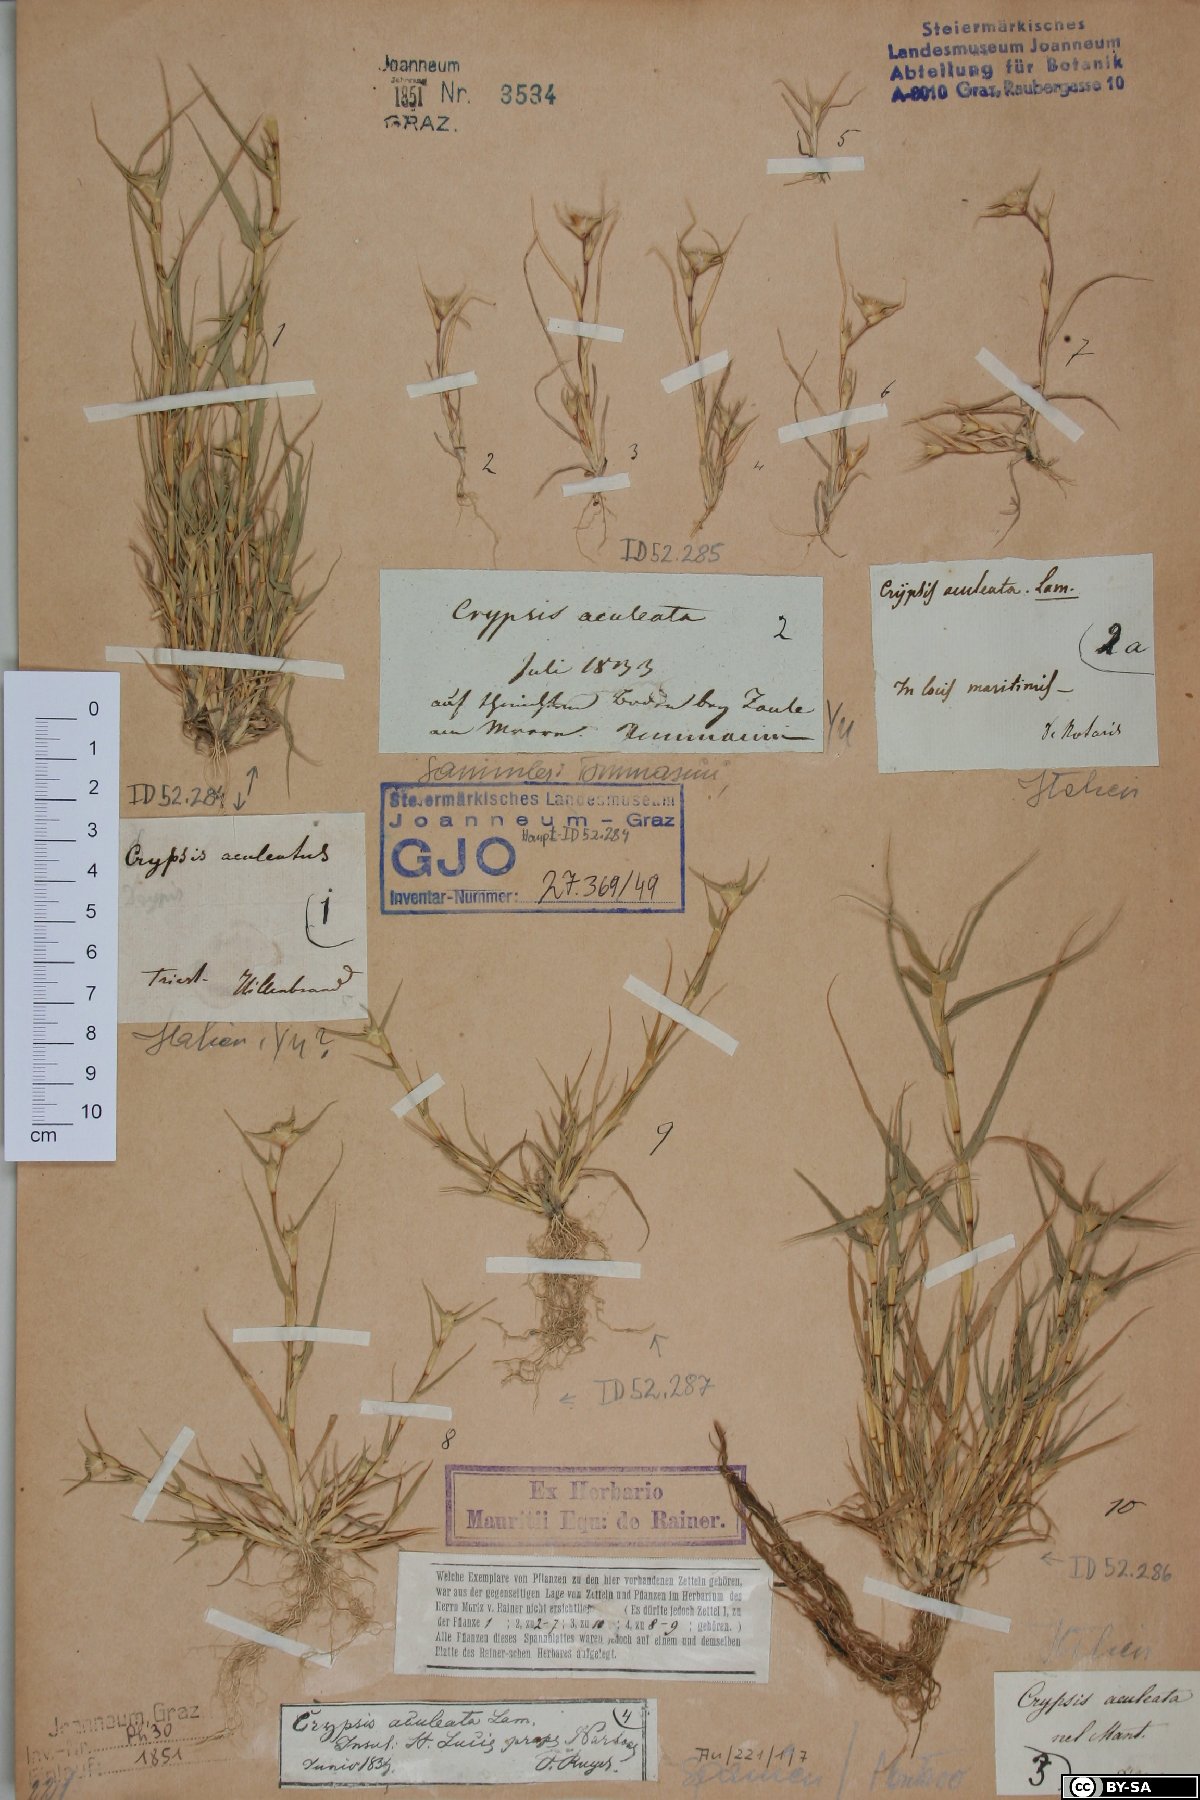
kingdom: Plantae
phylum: Tracheophyta
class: Liliopsida
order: Poales
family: Poaceae
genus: Sporobolus
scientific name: Sporobolus aculeatus
